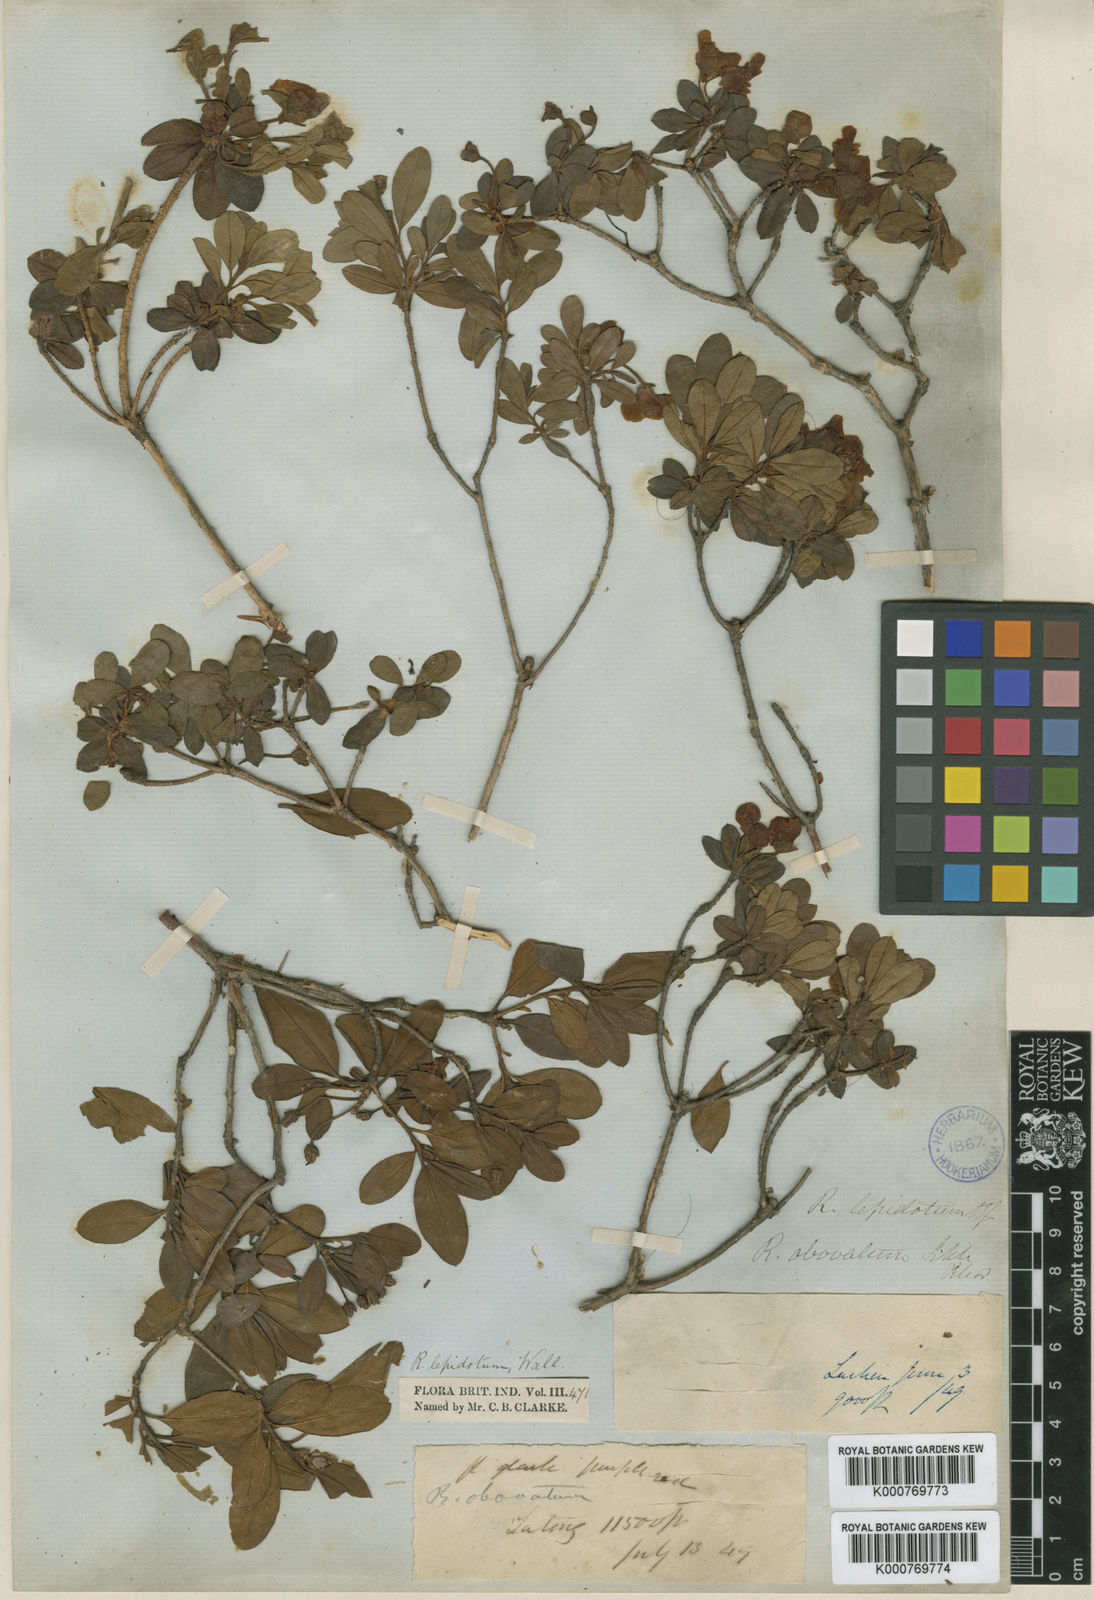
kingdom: Plantae
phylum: Tracheophyta
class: Magnoliopsida
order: Ericales
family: Ericaceae
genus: Rhododendron
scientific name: Rhododendron lepidotum
